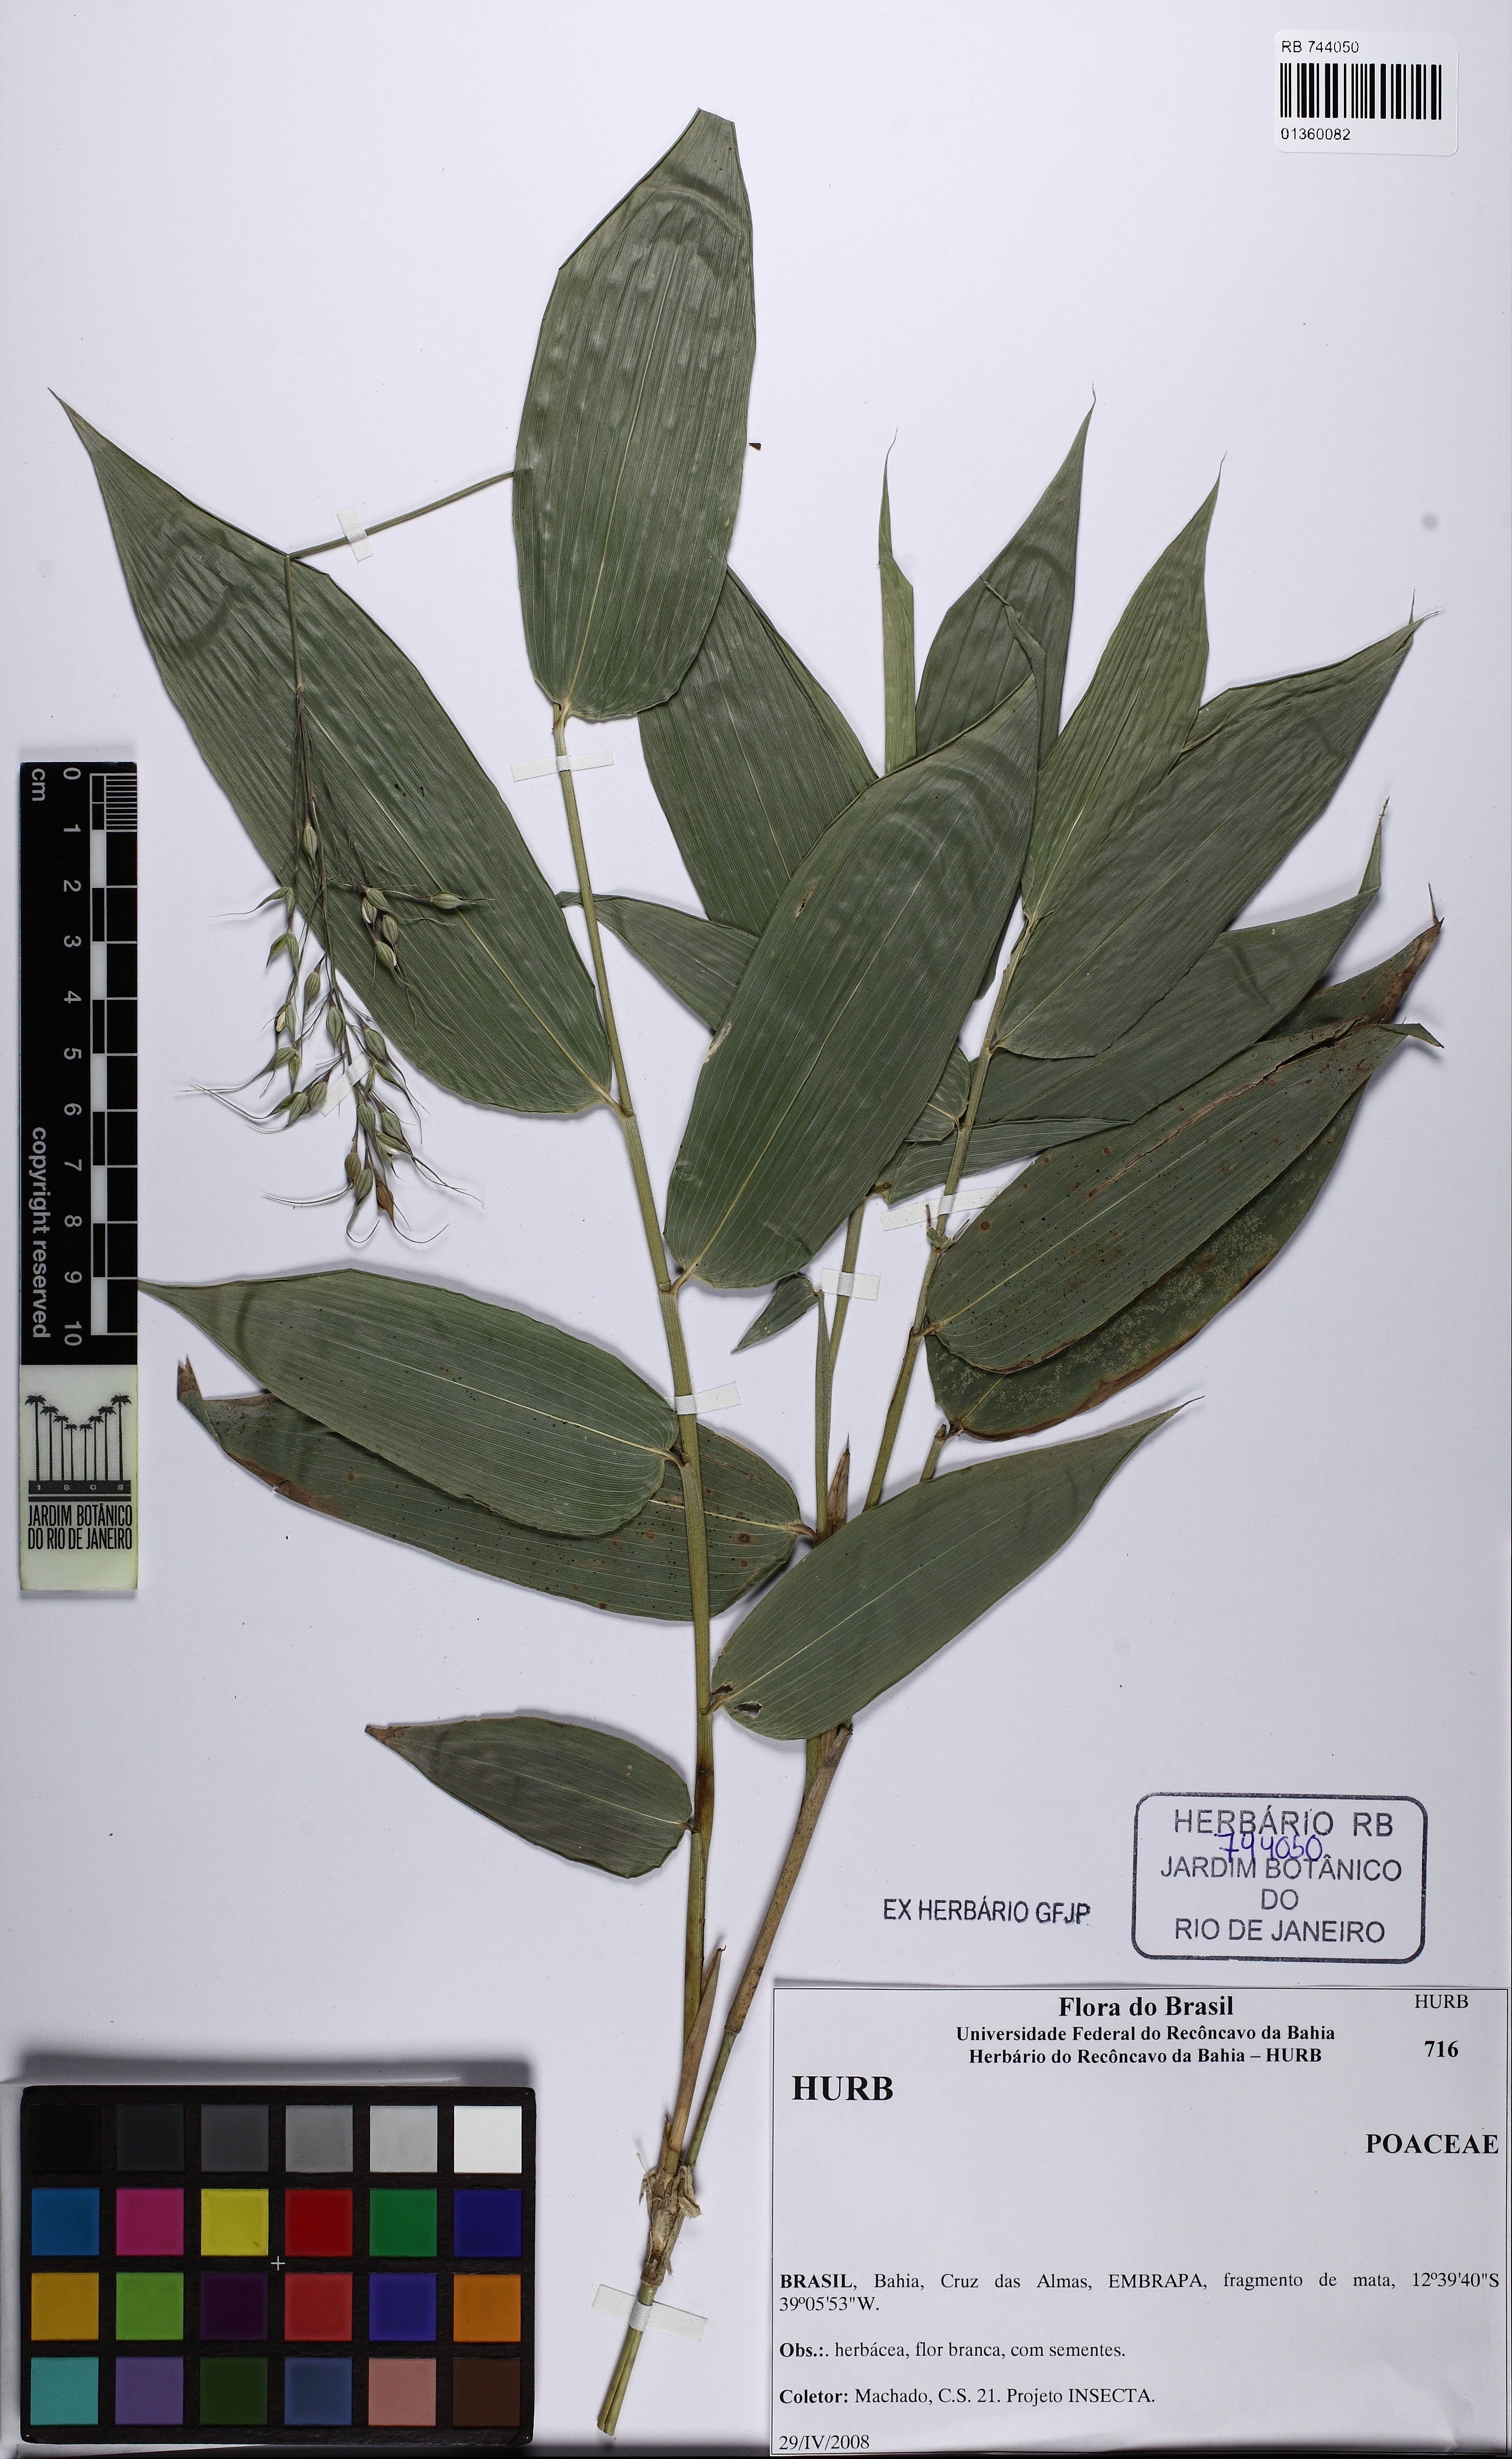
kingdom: Plantae
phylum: Tracheophyta
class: Liliopsida
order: Poales
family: Poaceae
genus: Olyra
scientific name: Olyra latifolia
